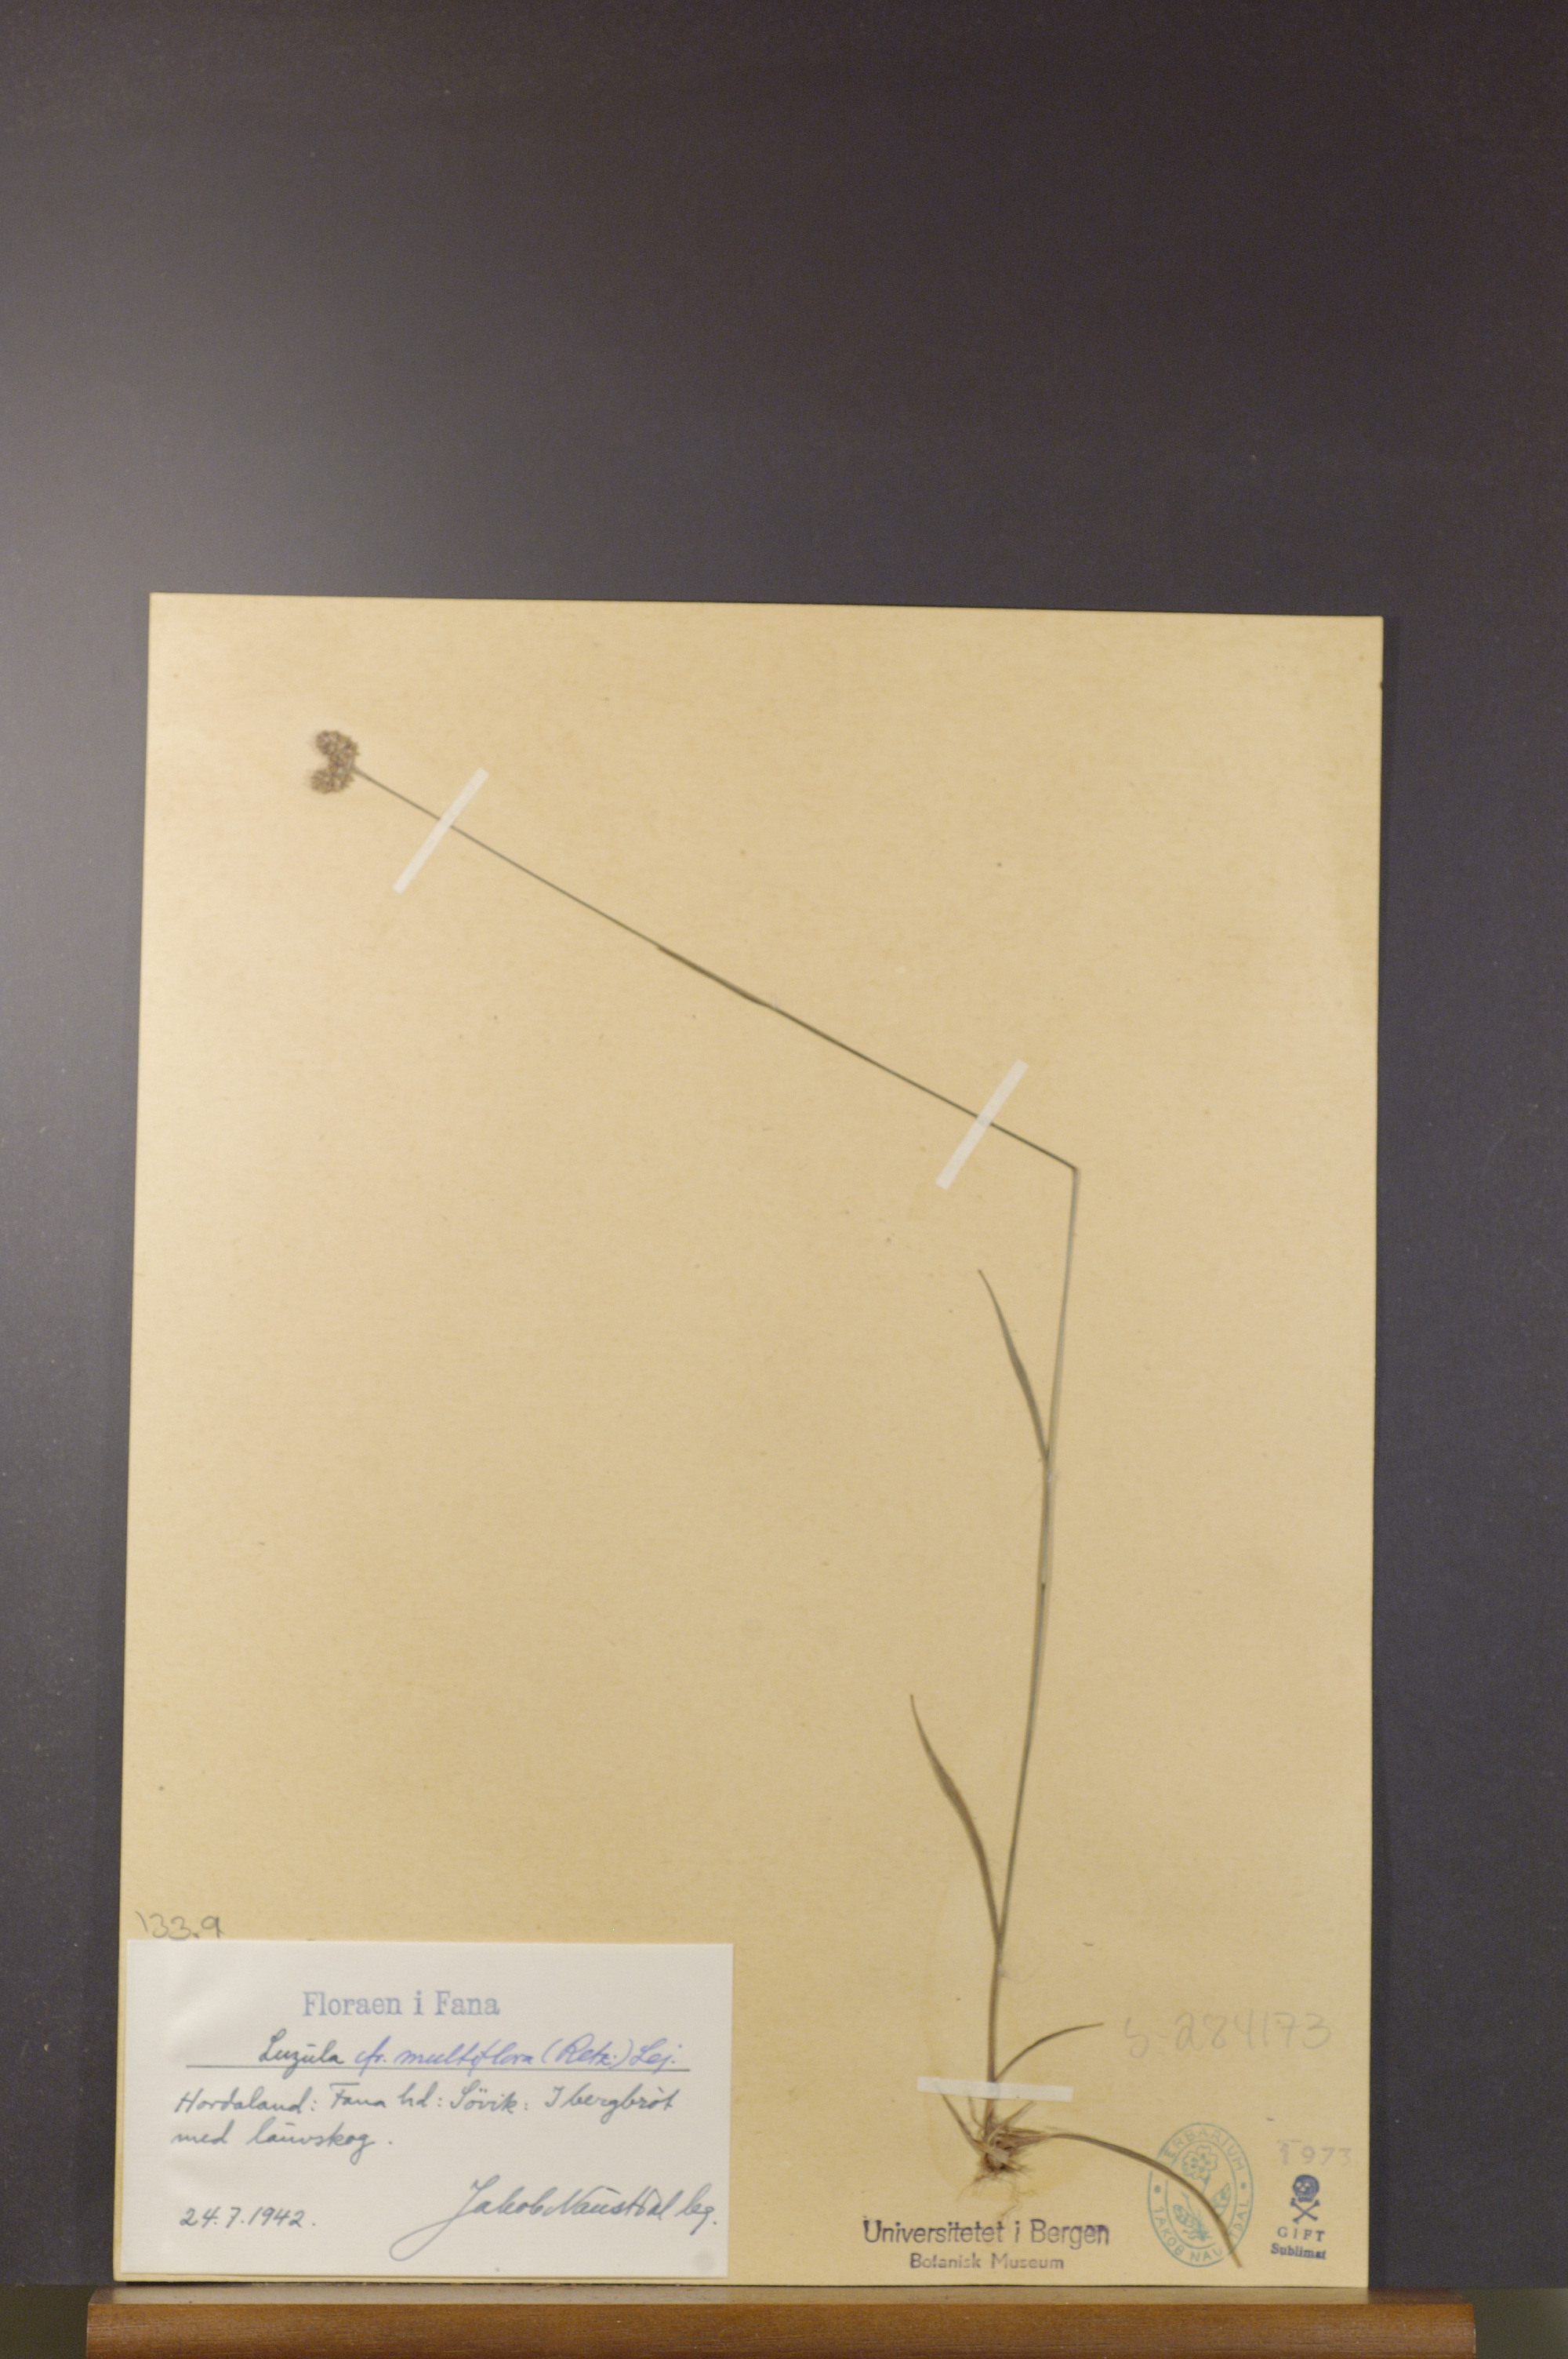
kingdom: Plantae
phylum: Tracheophyta
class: Liliopsida
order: Poales
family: Juncaceae
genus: Luzula
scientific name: Luzula multiflora
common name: Heath wood-rush
